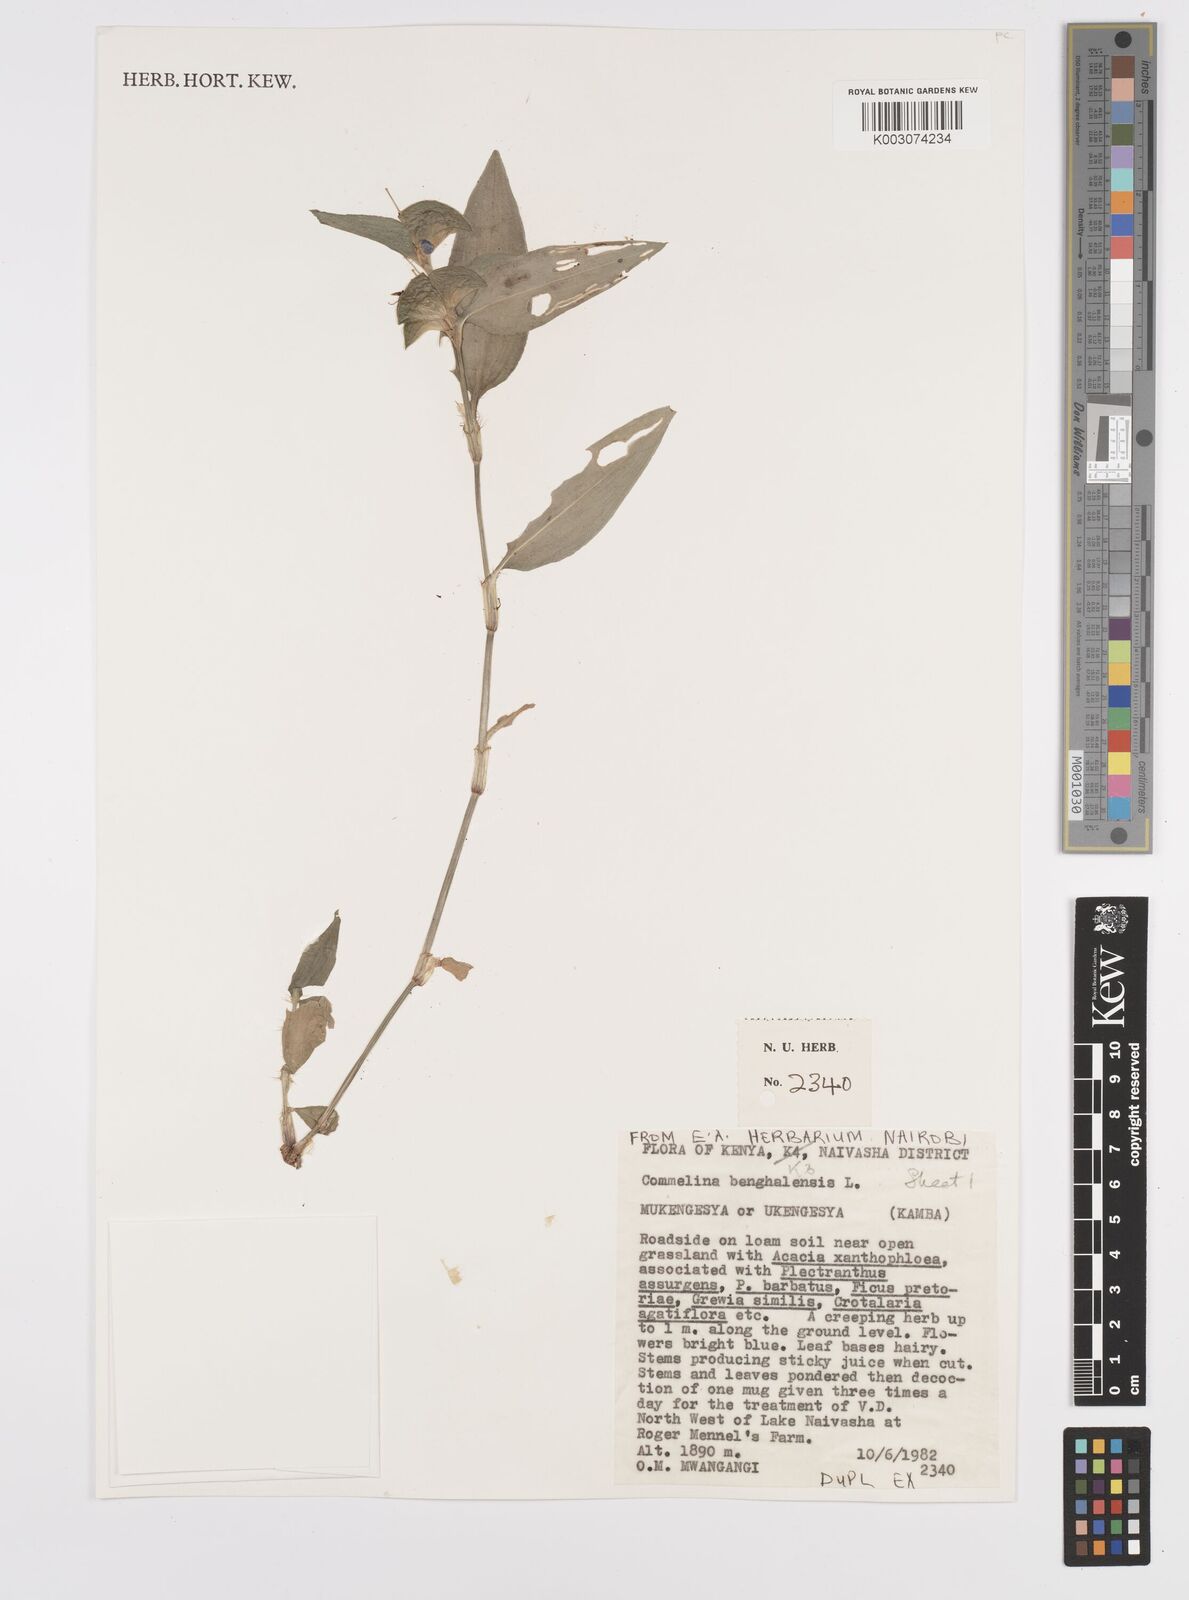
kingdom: Plantae
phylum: Tracheophyta
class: Liliopsida
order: Commelinales
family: Commelinaceae
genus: Commelina
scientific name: Commelina benghalensis
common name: Jio
